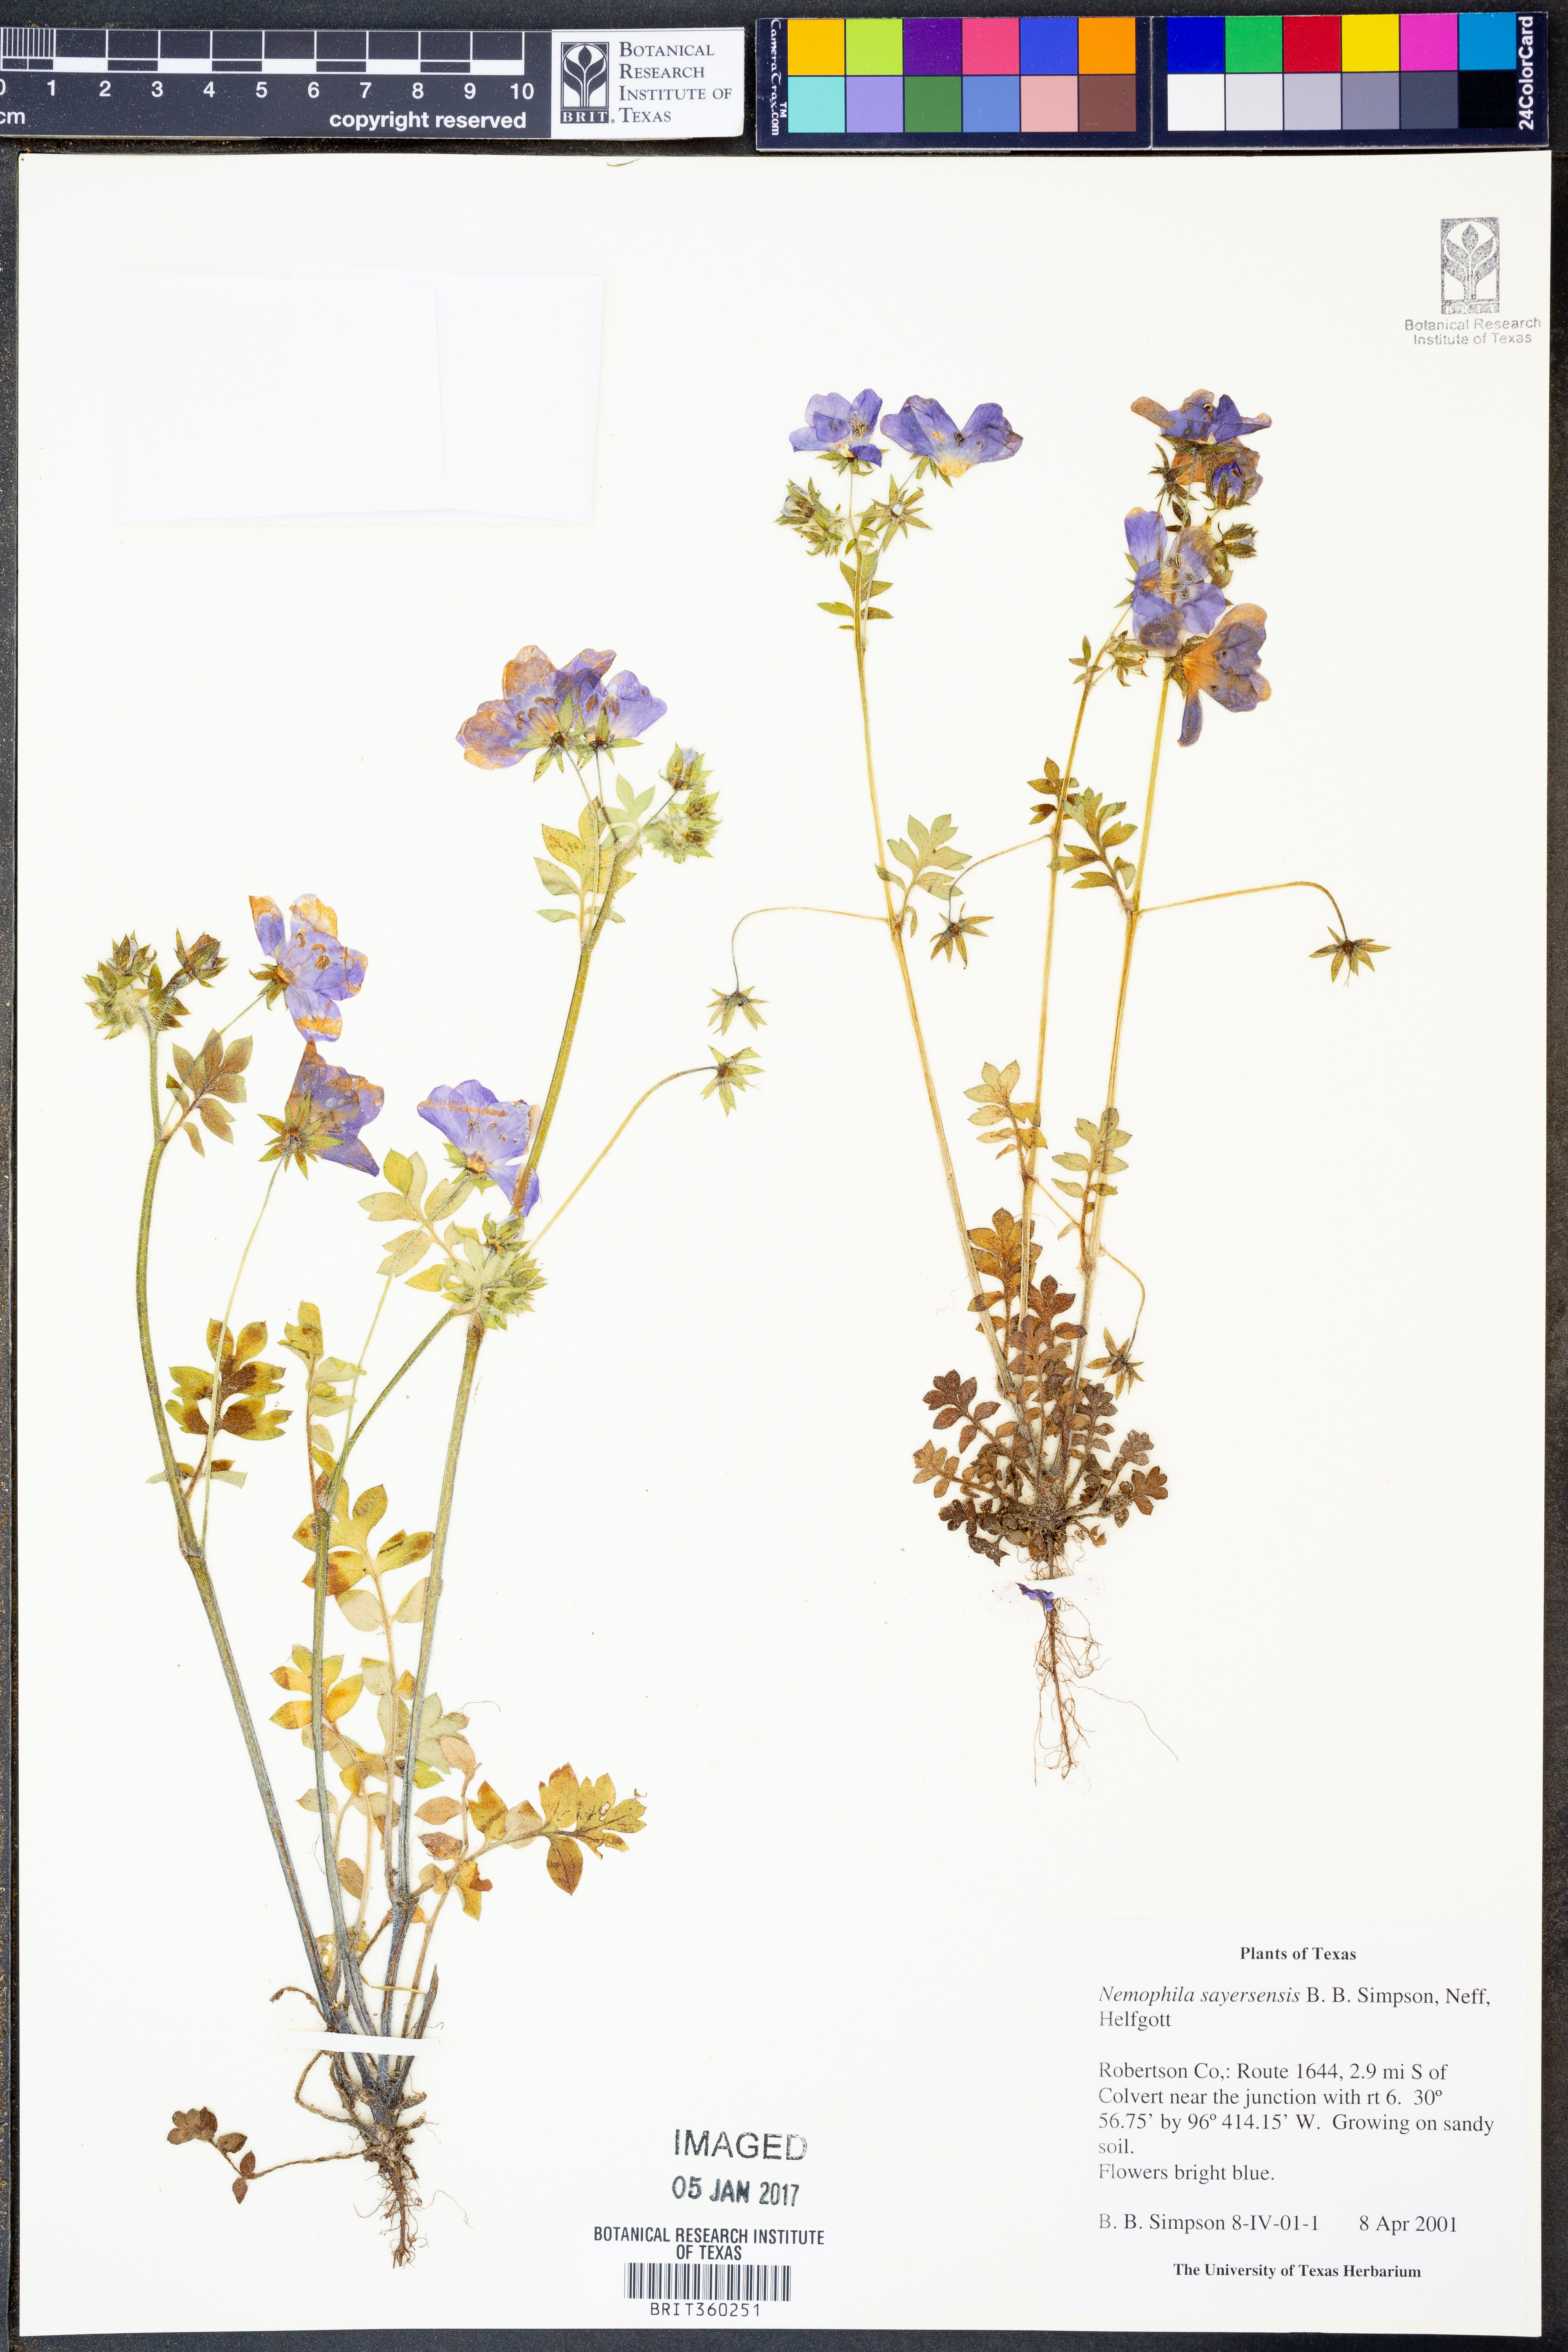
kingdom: Plantae
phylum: Tracheophyta
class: Magnoliopsida
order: Boraginales
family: Hydrophyllaceae
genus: Nemophila
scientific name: Nemophila sayersensis
